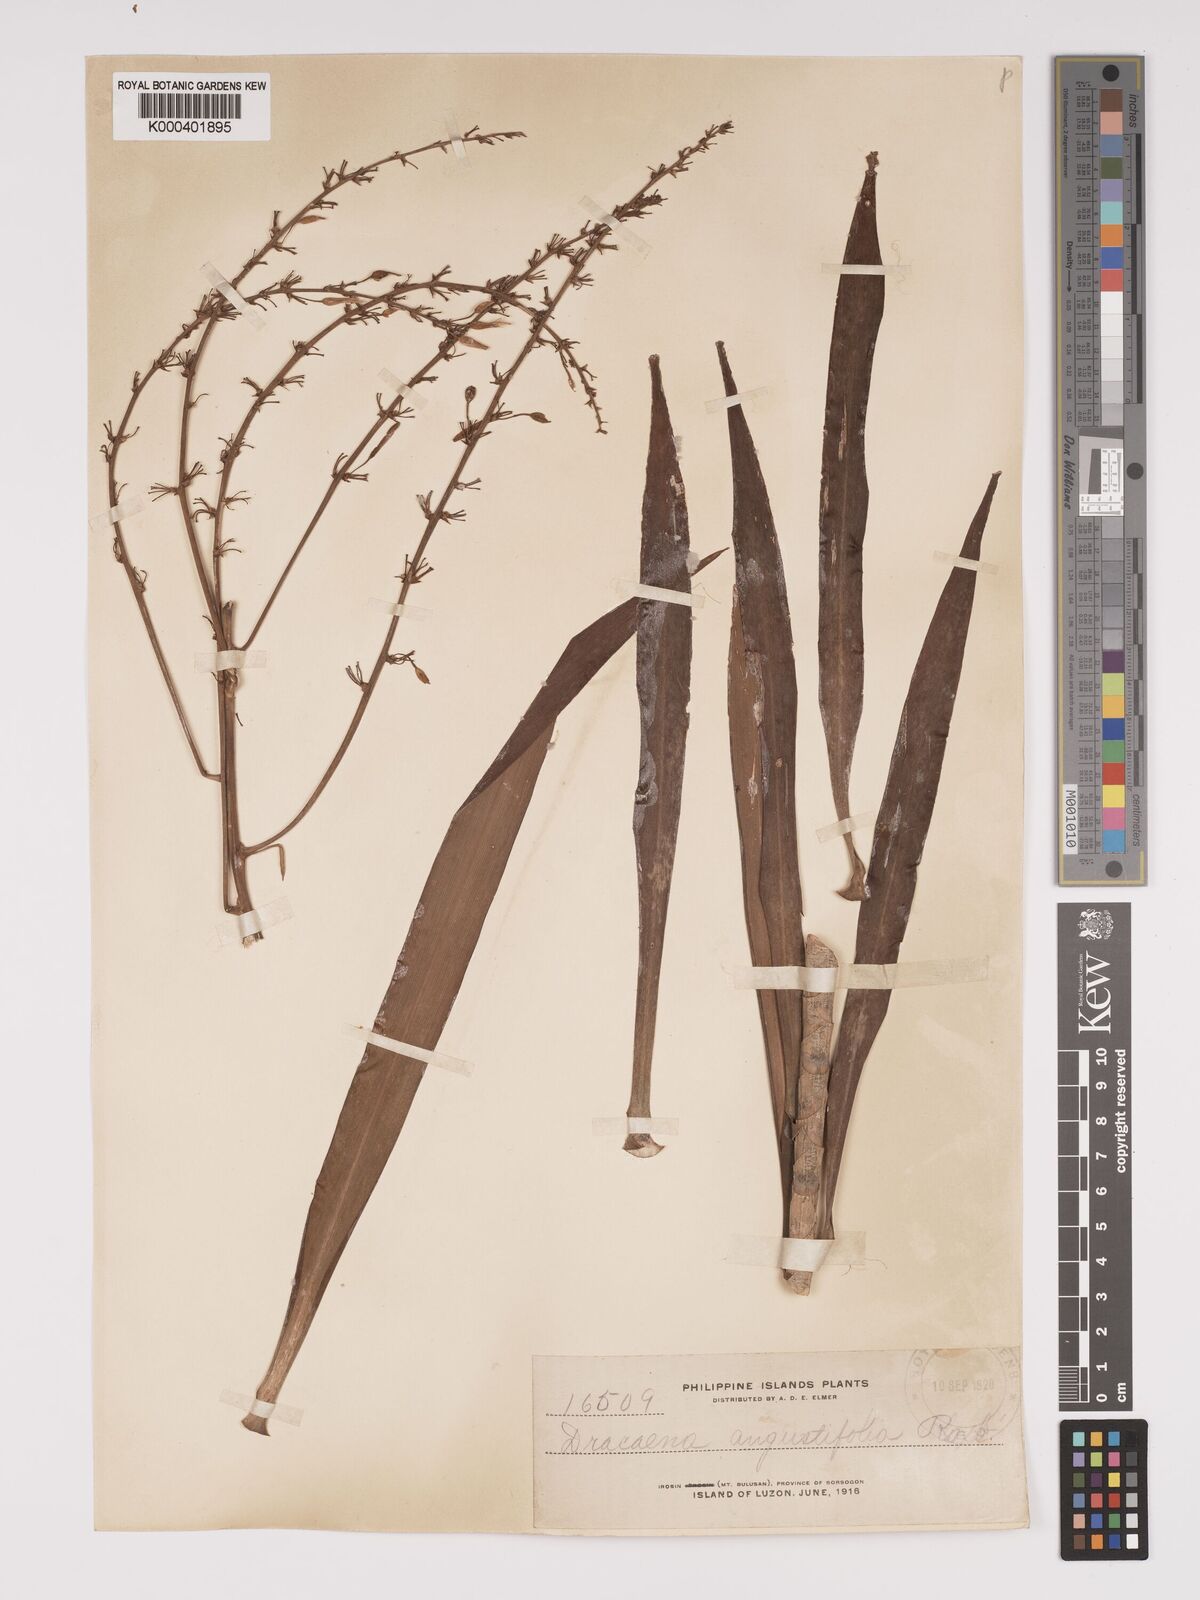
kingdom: Plantae
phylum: Tracheophyta
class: Liliopsida
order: Asparagales
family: Asparagaceae
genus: Dracaena
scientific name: Dracaena angustifolia
